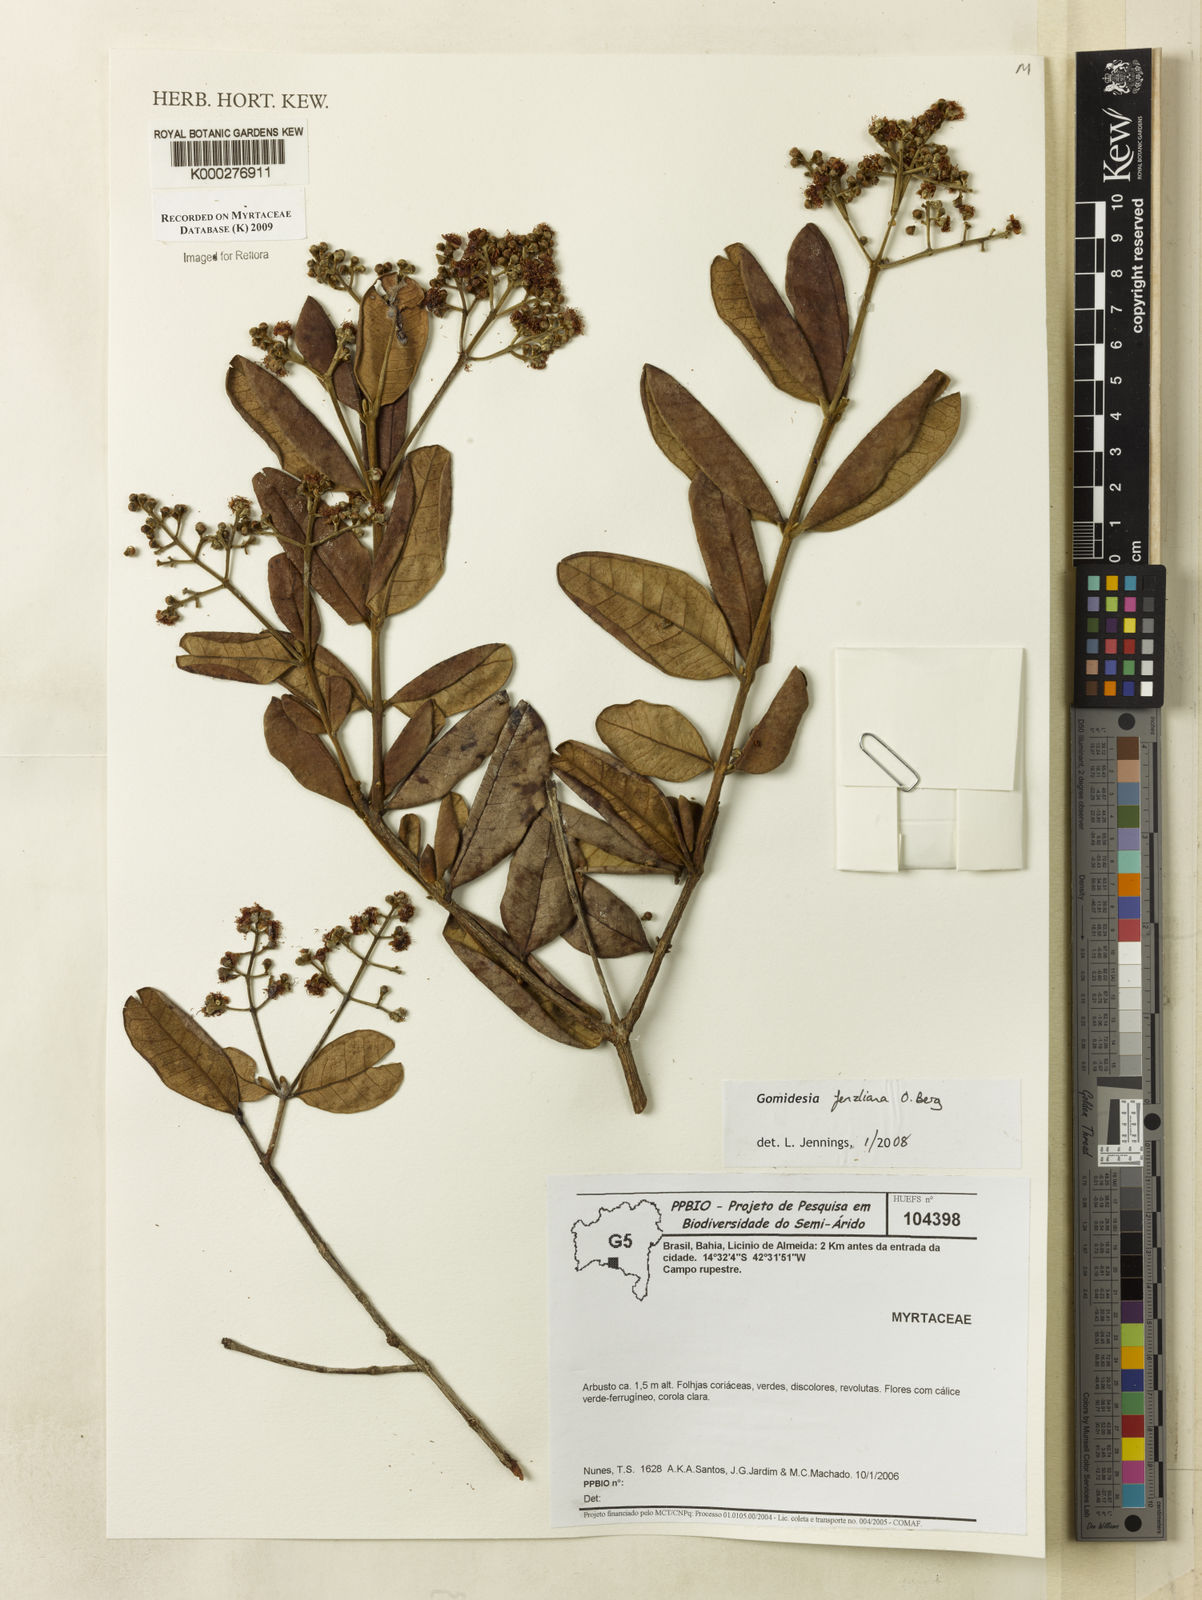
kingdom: Plantae
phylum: Tracheophyta
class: Magnoliopsida
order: Myrtales
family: Myrtaceae
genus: Myrcia
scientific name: Myrcia ilheosensis
